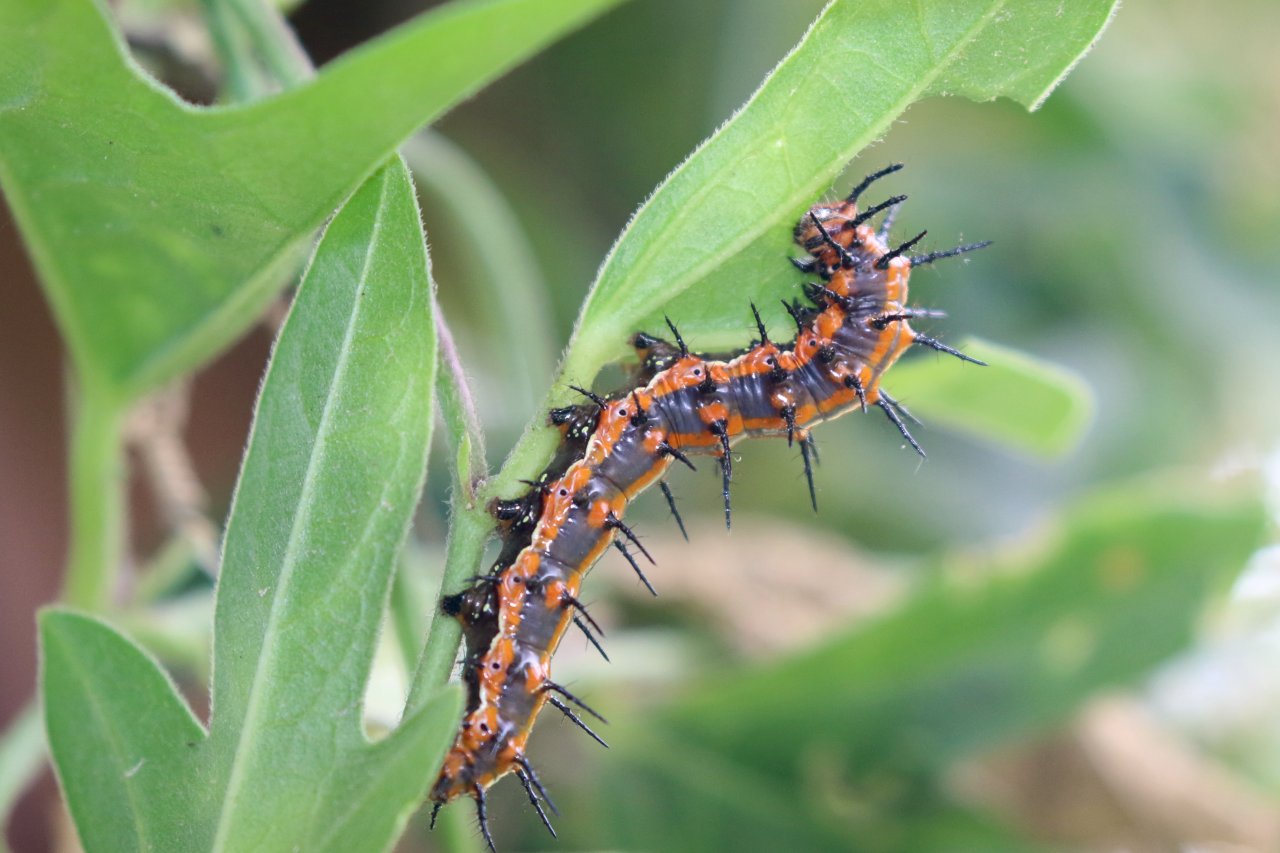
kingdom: Animalia
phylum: Arthropoda
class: Insecta
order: Lepidoptera
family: Nymphalidae
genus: Dione
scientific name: Dione vanillae
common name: Gulf Fritillary
